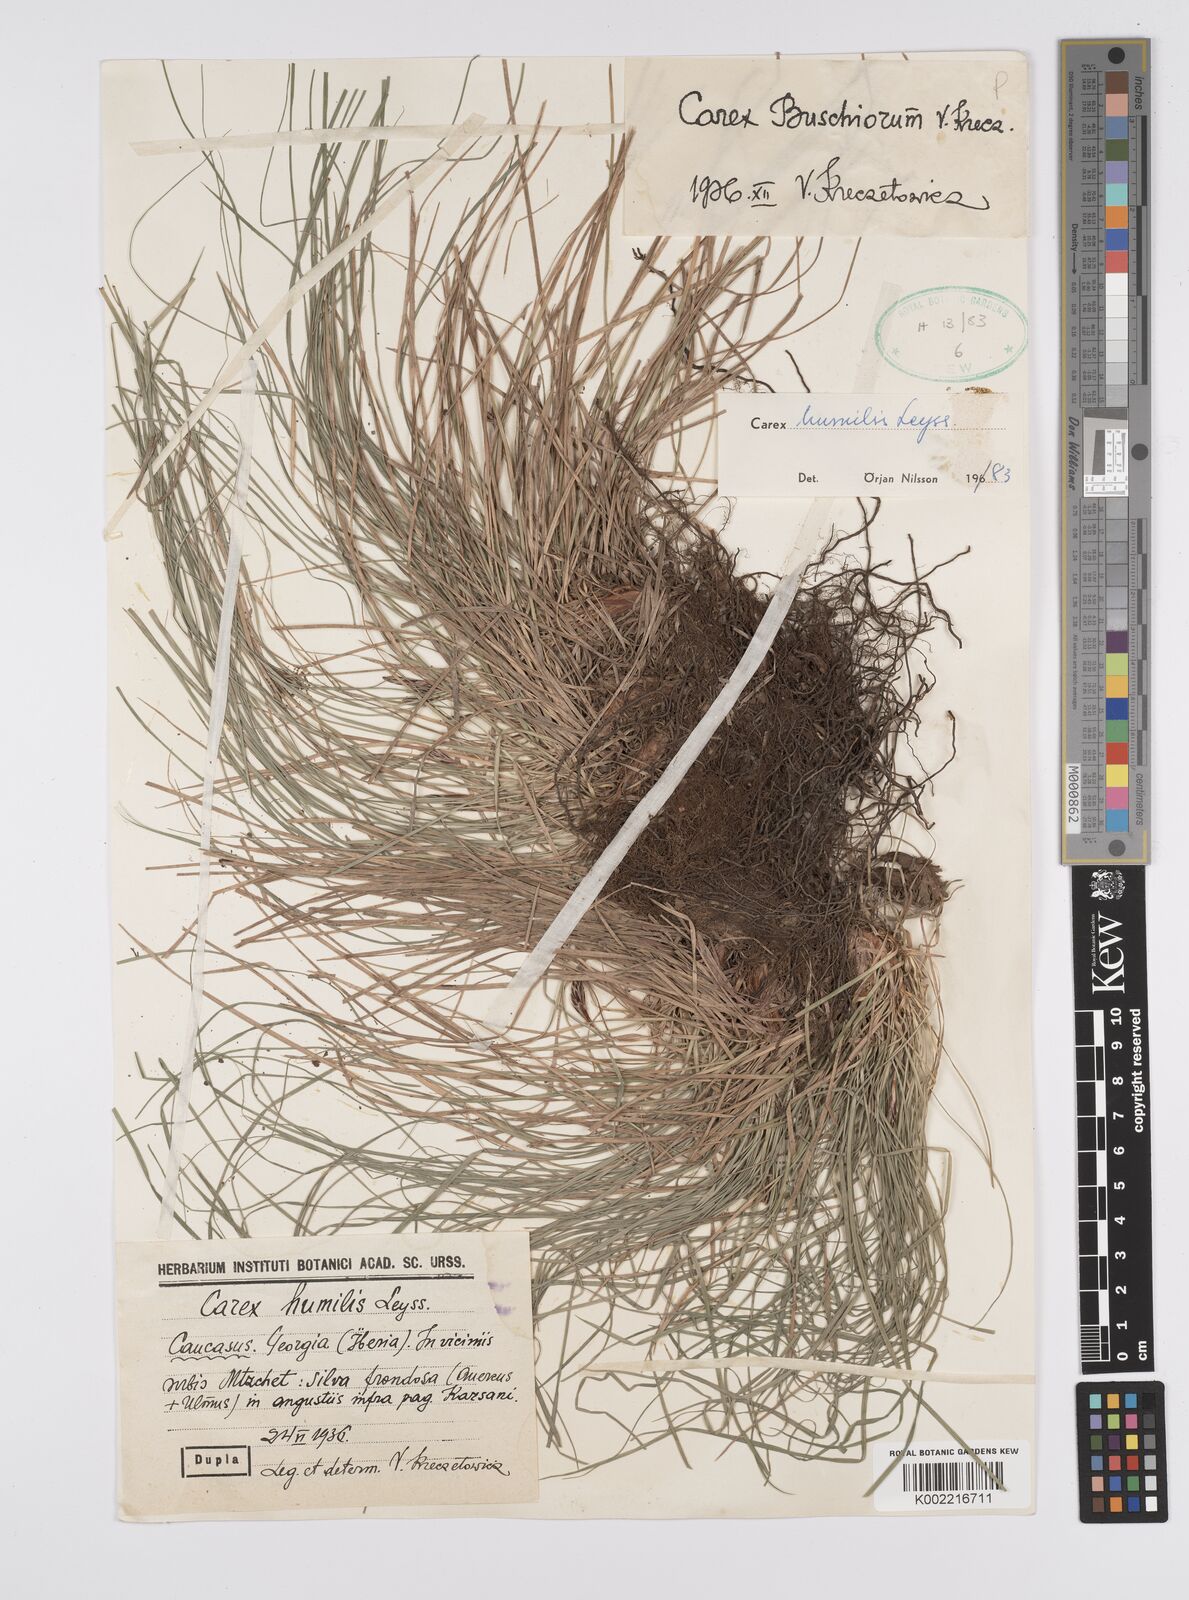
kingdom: Plantae
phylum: Tracheophyta
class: Liliopsida
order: Poales
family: Cyperaceae
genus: Carex
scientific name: Carex humilis
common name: Dwarf sedge
